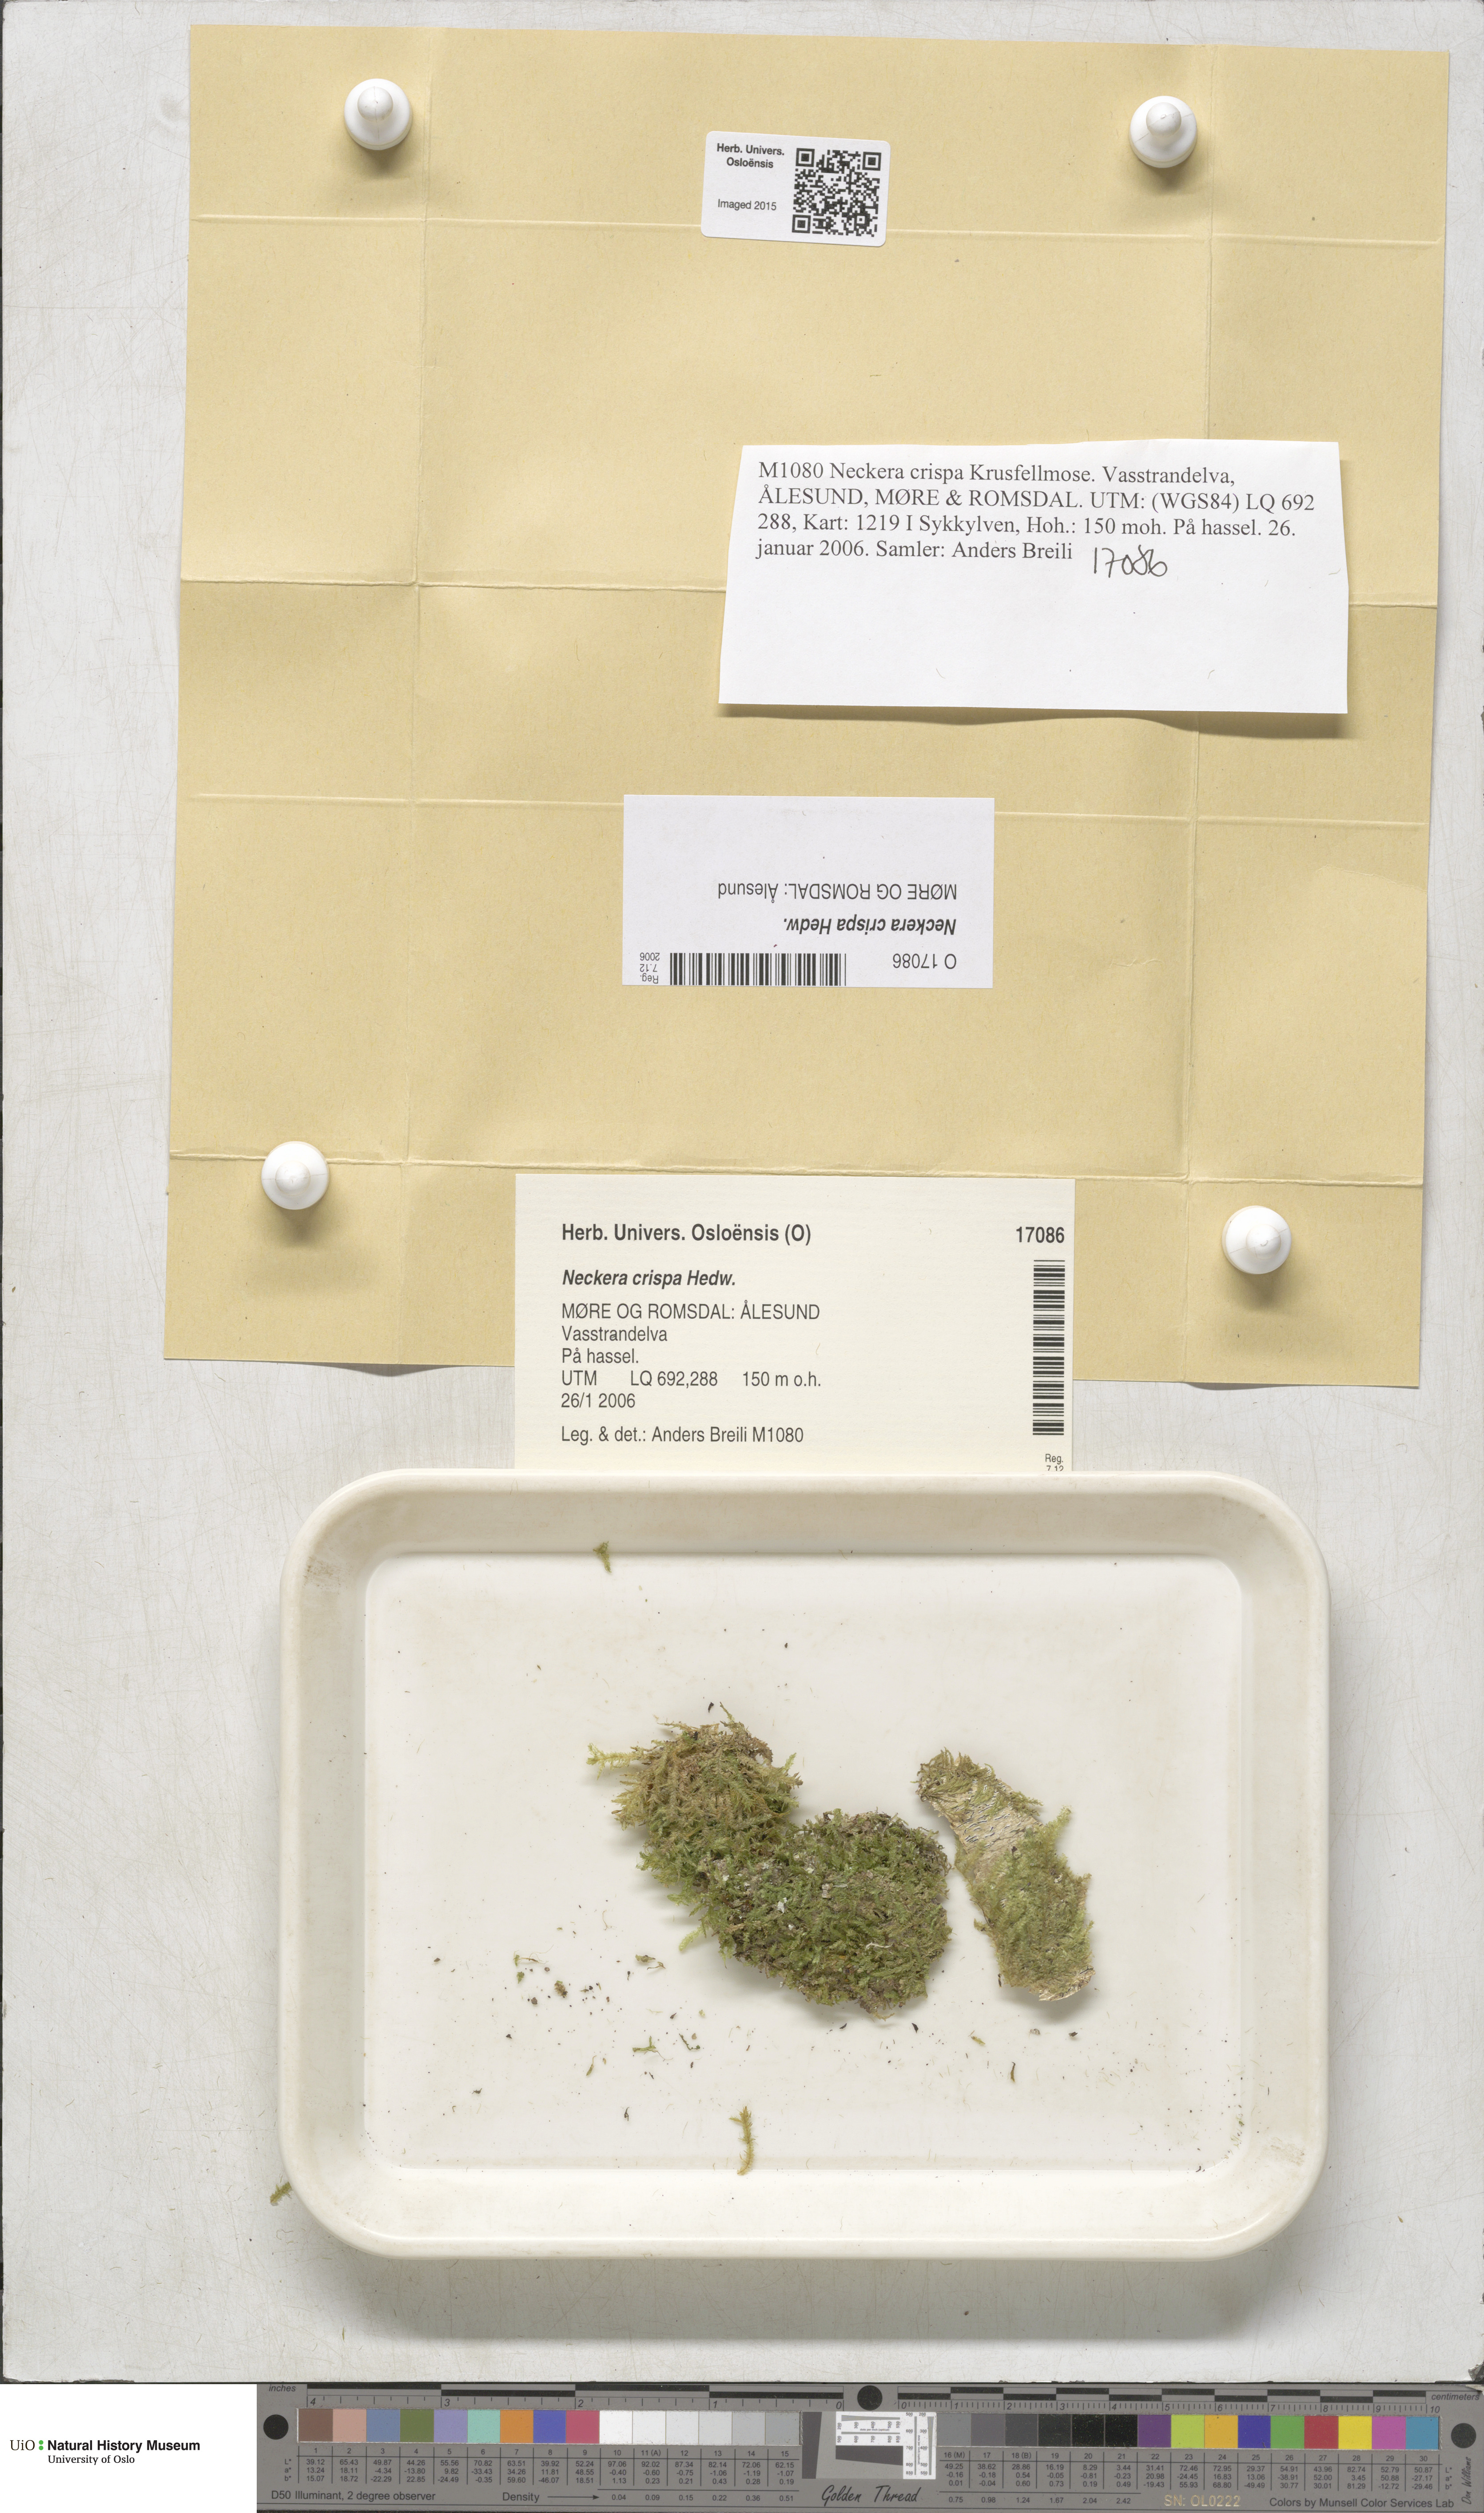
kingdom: Plantae
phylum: Bryophyta
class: Bryopsida
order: Hypnales
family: Neckeraceae
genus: Exsertotheca
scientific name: Exsertotheca crispa
